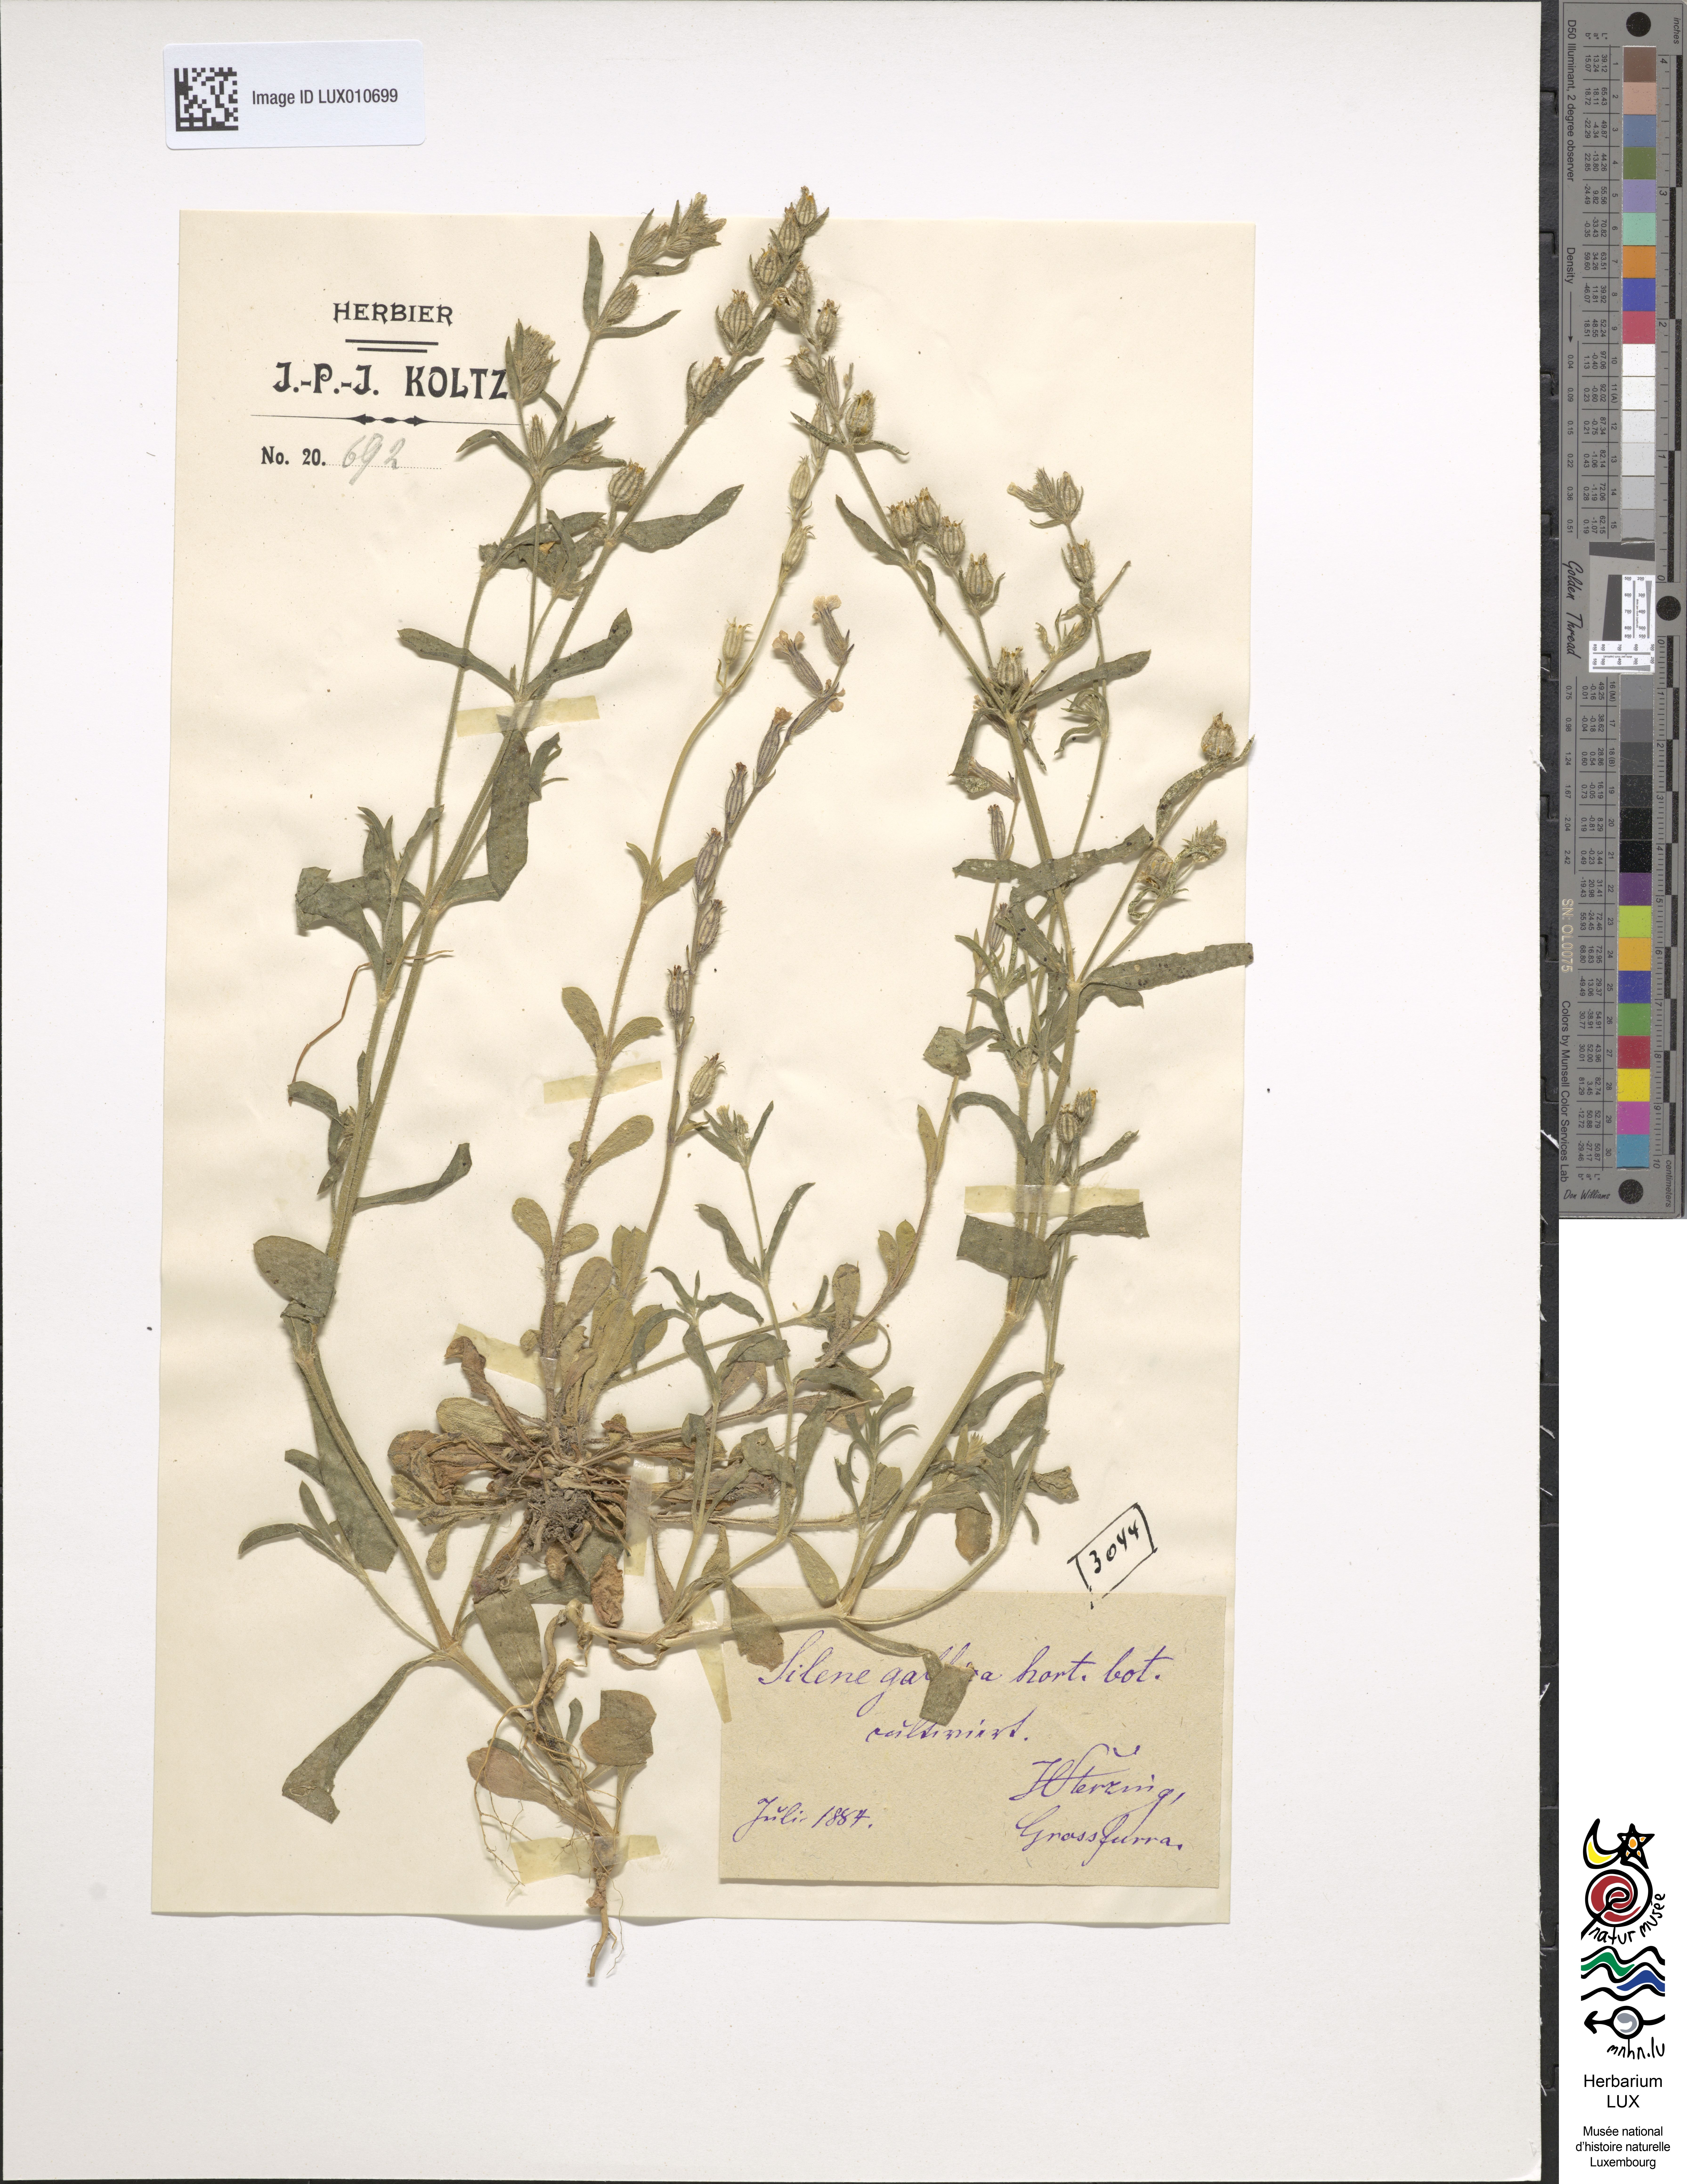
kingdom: Plantae
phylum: Tracheophyta
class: Magnoliopsida
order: Caryophyllales
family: Caryophyllaceae
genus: Silene
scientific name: Silene gallica
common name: Small-flowered catchfly
